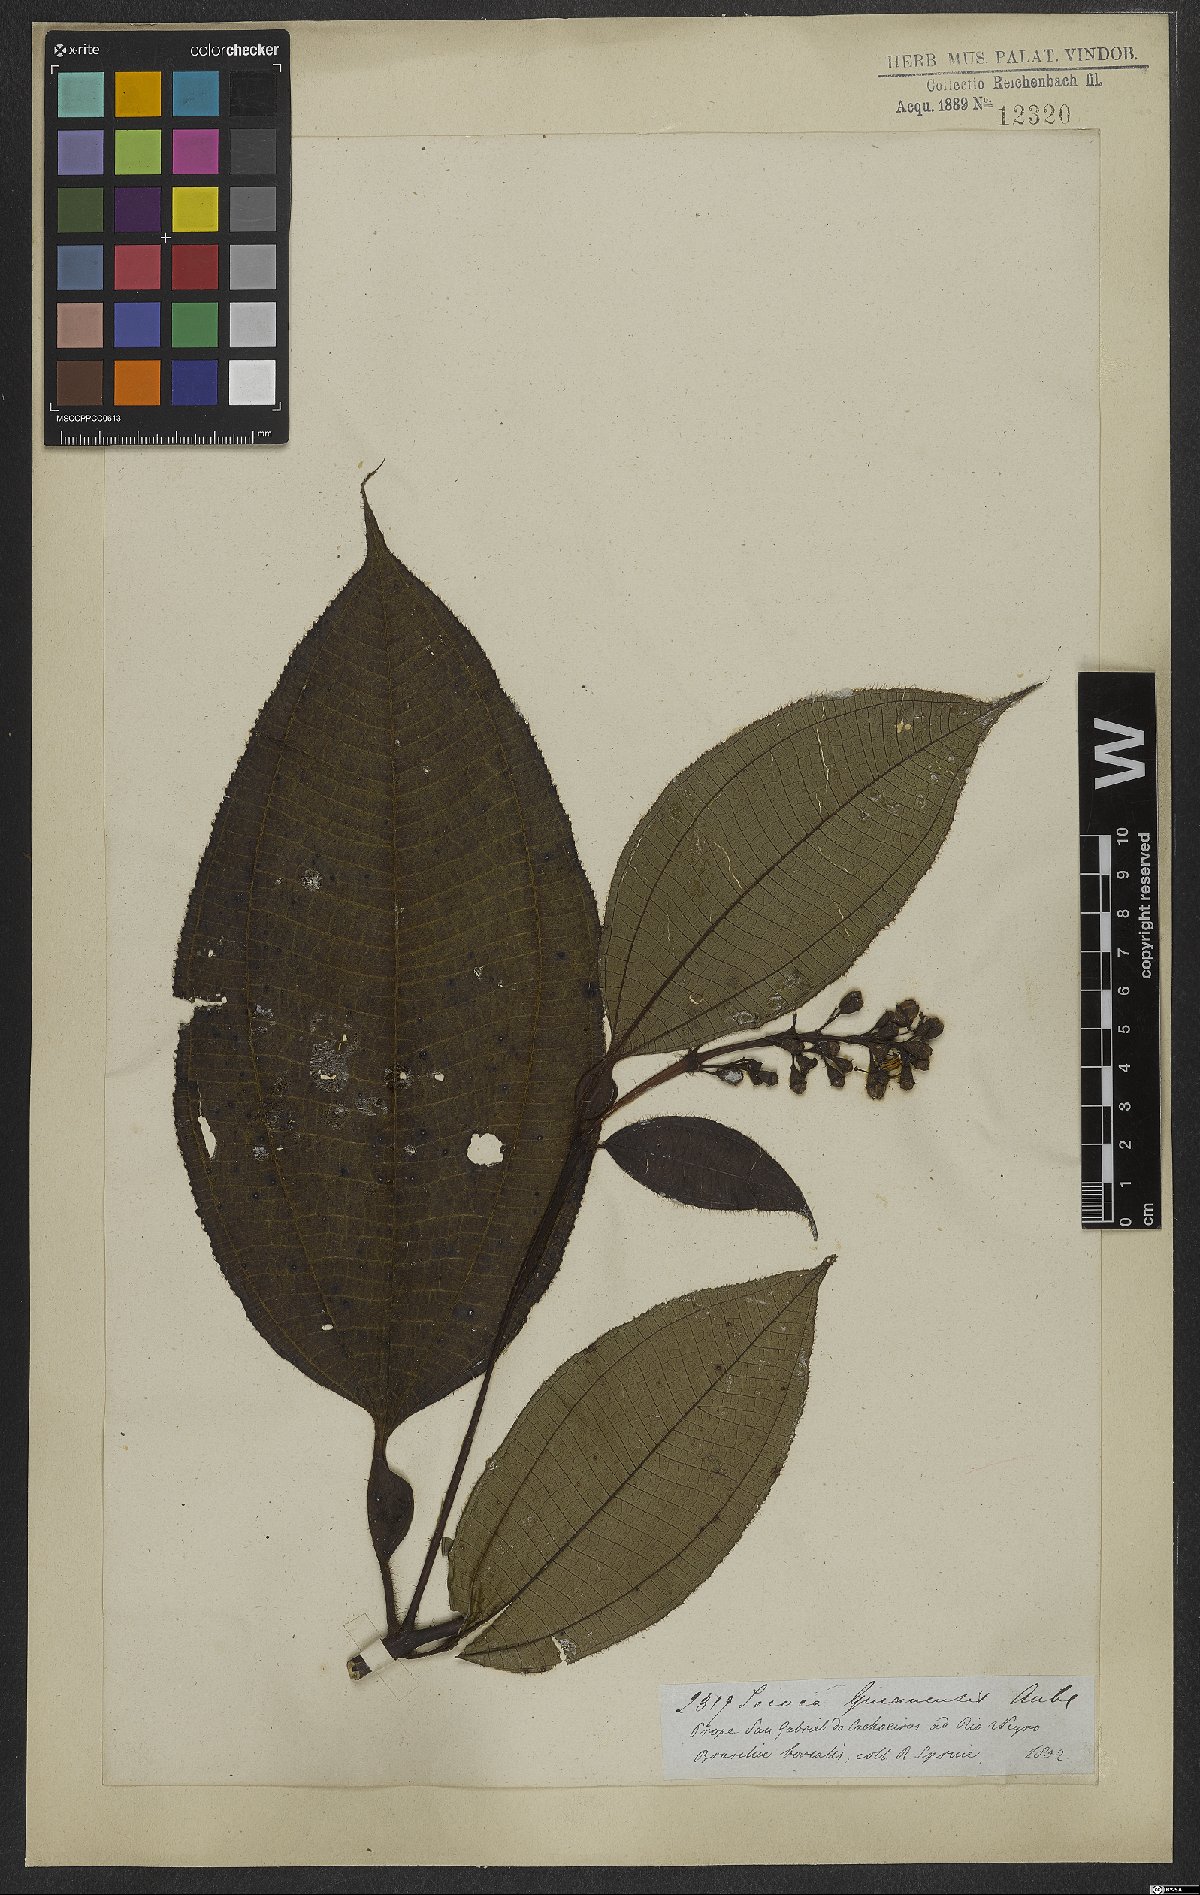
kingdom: Plantae
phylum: Tracheophyta
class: Magnoliopsida
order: Myrtales
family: Melastomataceae
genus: Miconia
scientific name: Miconia tococa
